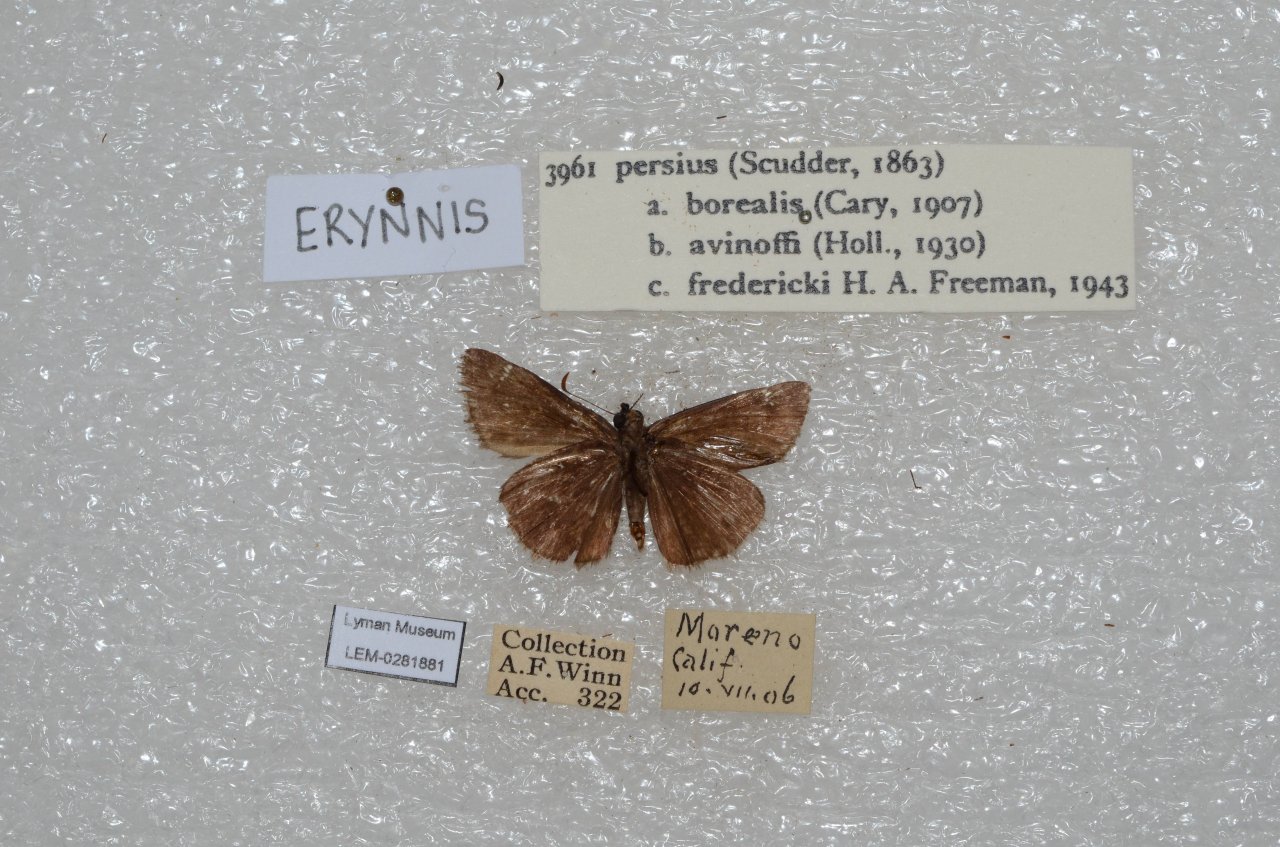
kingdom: Animalia
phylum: Arthropoda
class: Insecta
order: Lepidoptera
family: Hesperiidae
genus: Gesta
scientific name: Gesta
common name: Persius Duskywing
